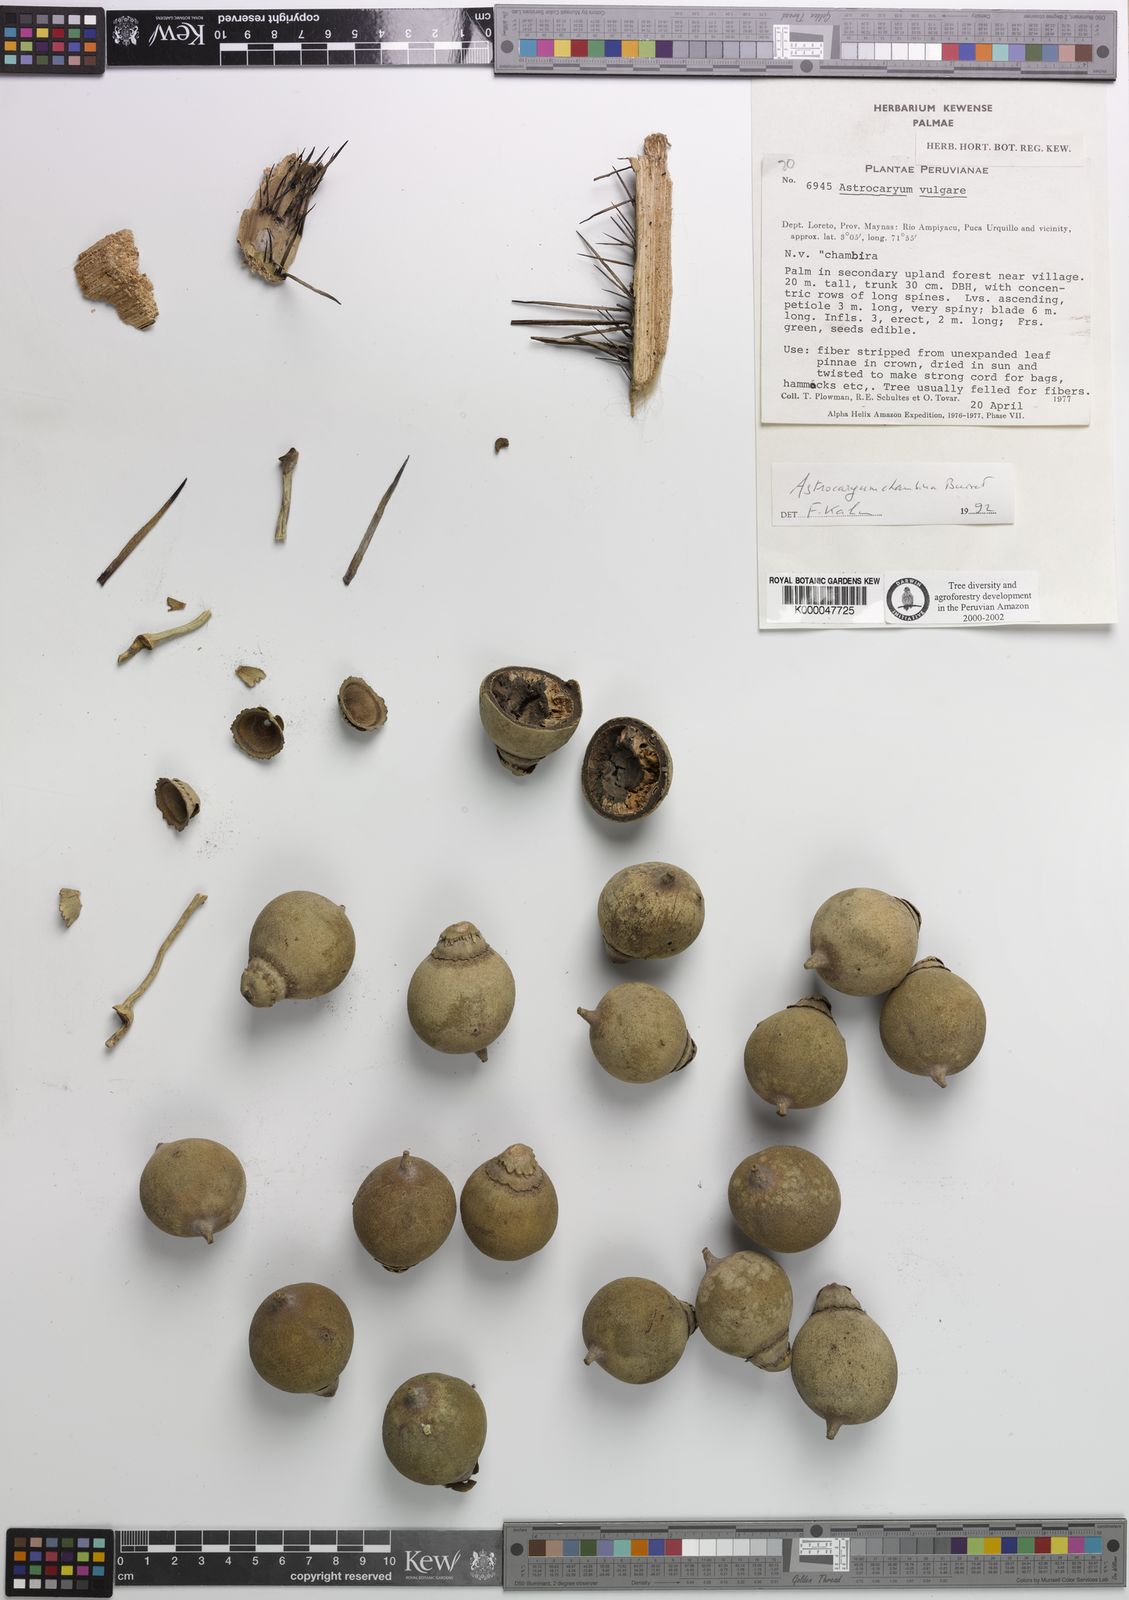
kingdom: Plantae
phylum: Tracheophyta
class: Liliopsida
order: Arecales
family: Arecaceae
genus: Astrocaryum
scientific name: Astrocaryum chambira
